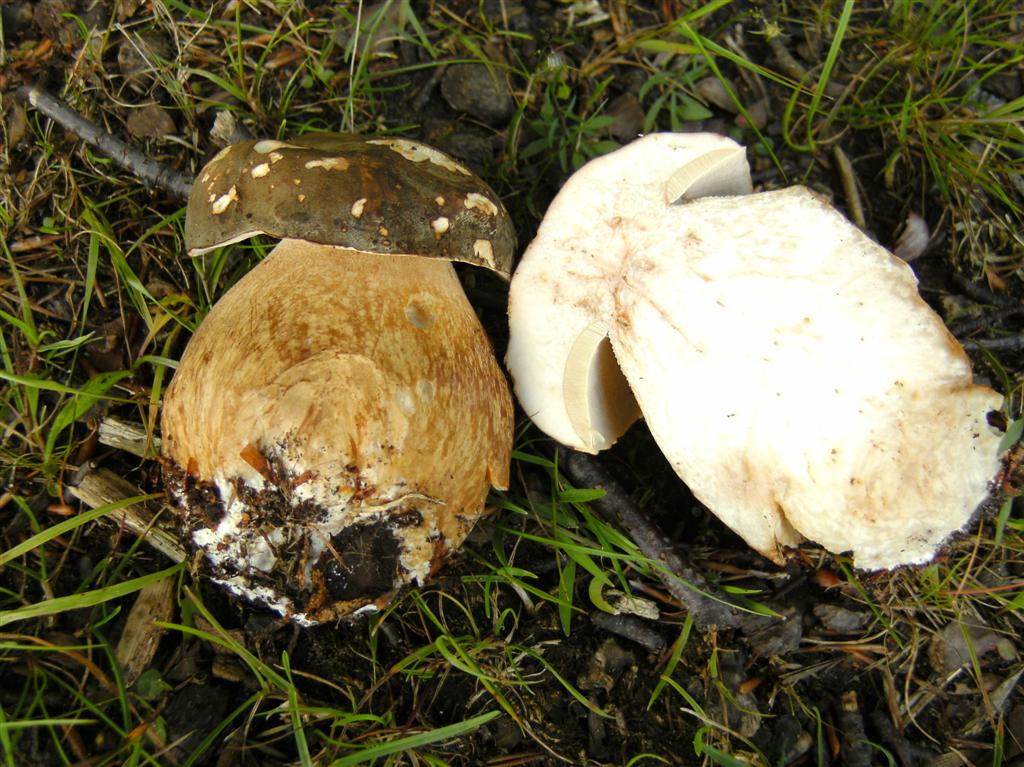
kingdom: Fungi
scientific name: Fungi
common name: bronze-rørhat
